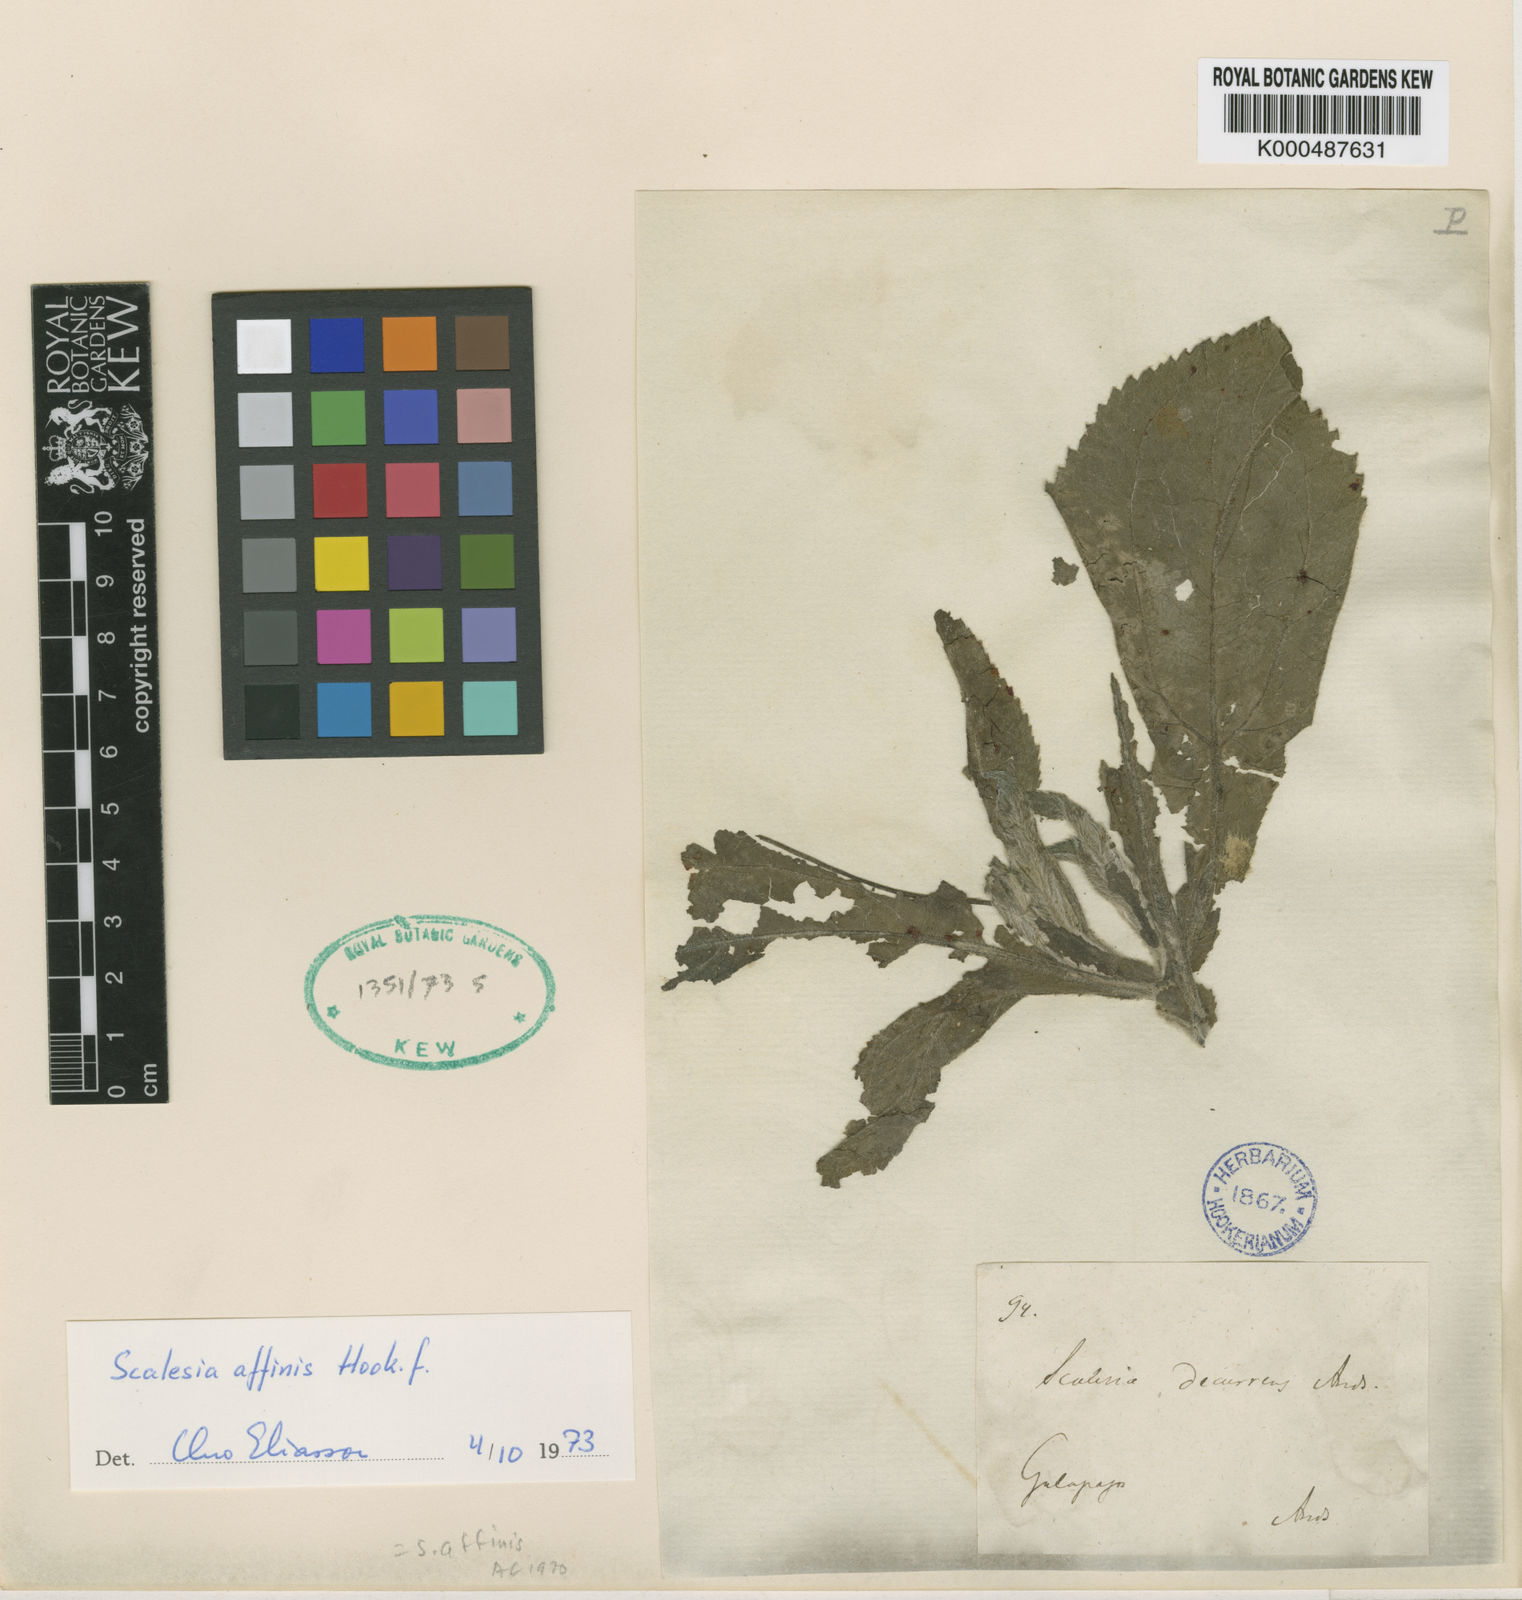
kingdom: Plantae
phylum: Tracheophyta
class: Magnoliopsida
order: Asterales
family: Asteraceae
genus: Scalesia
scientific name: Scalesia affinis
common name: Radiate-headed scalesia
